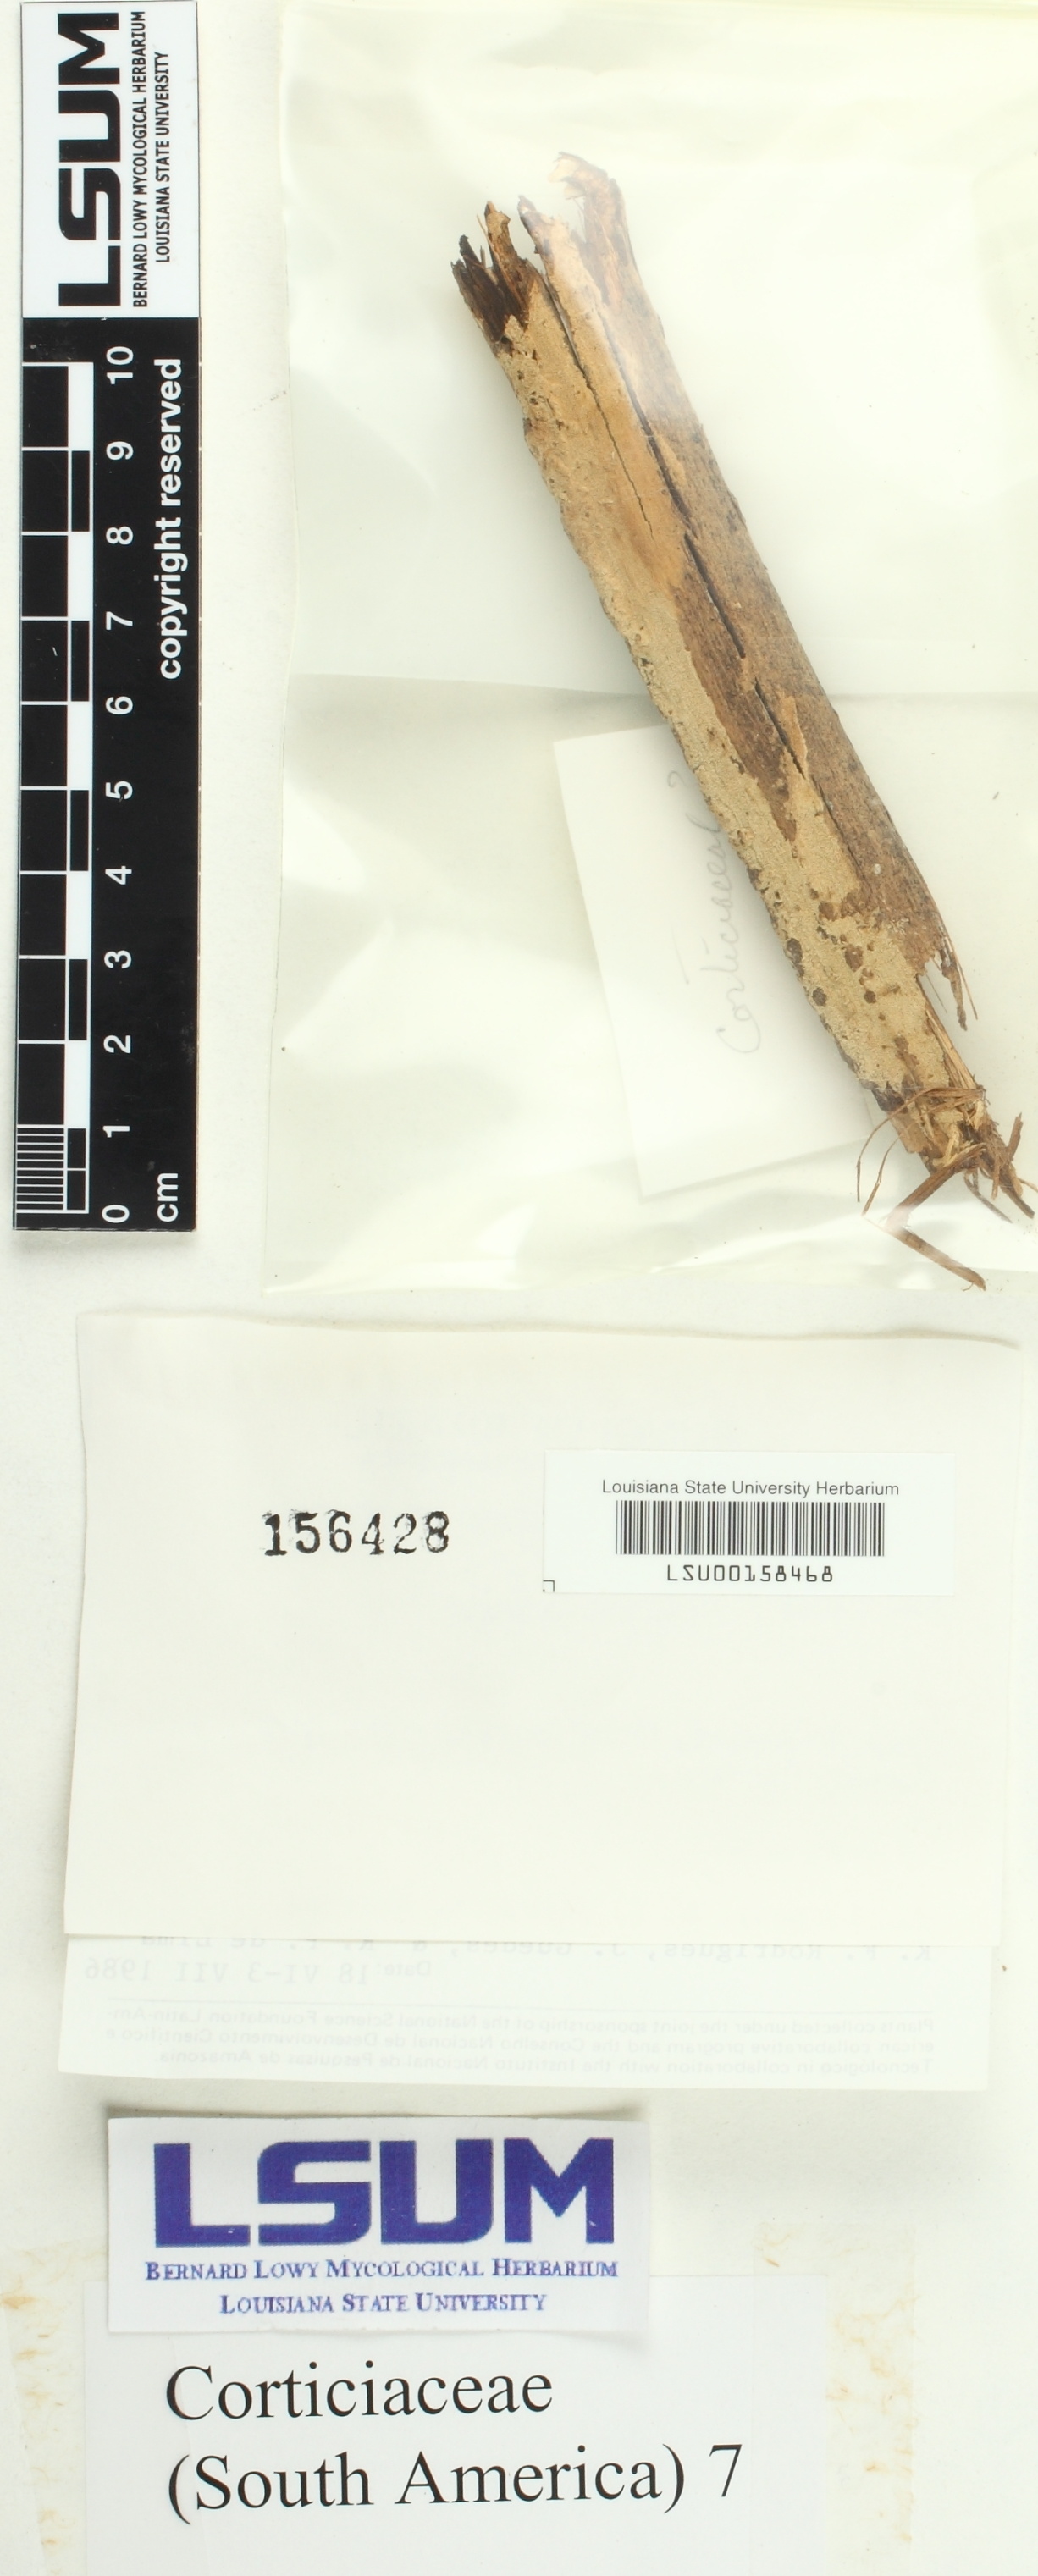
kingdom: Fungi
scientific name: Fungi
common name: Fungi
